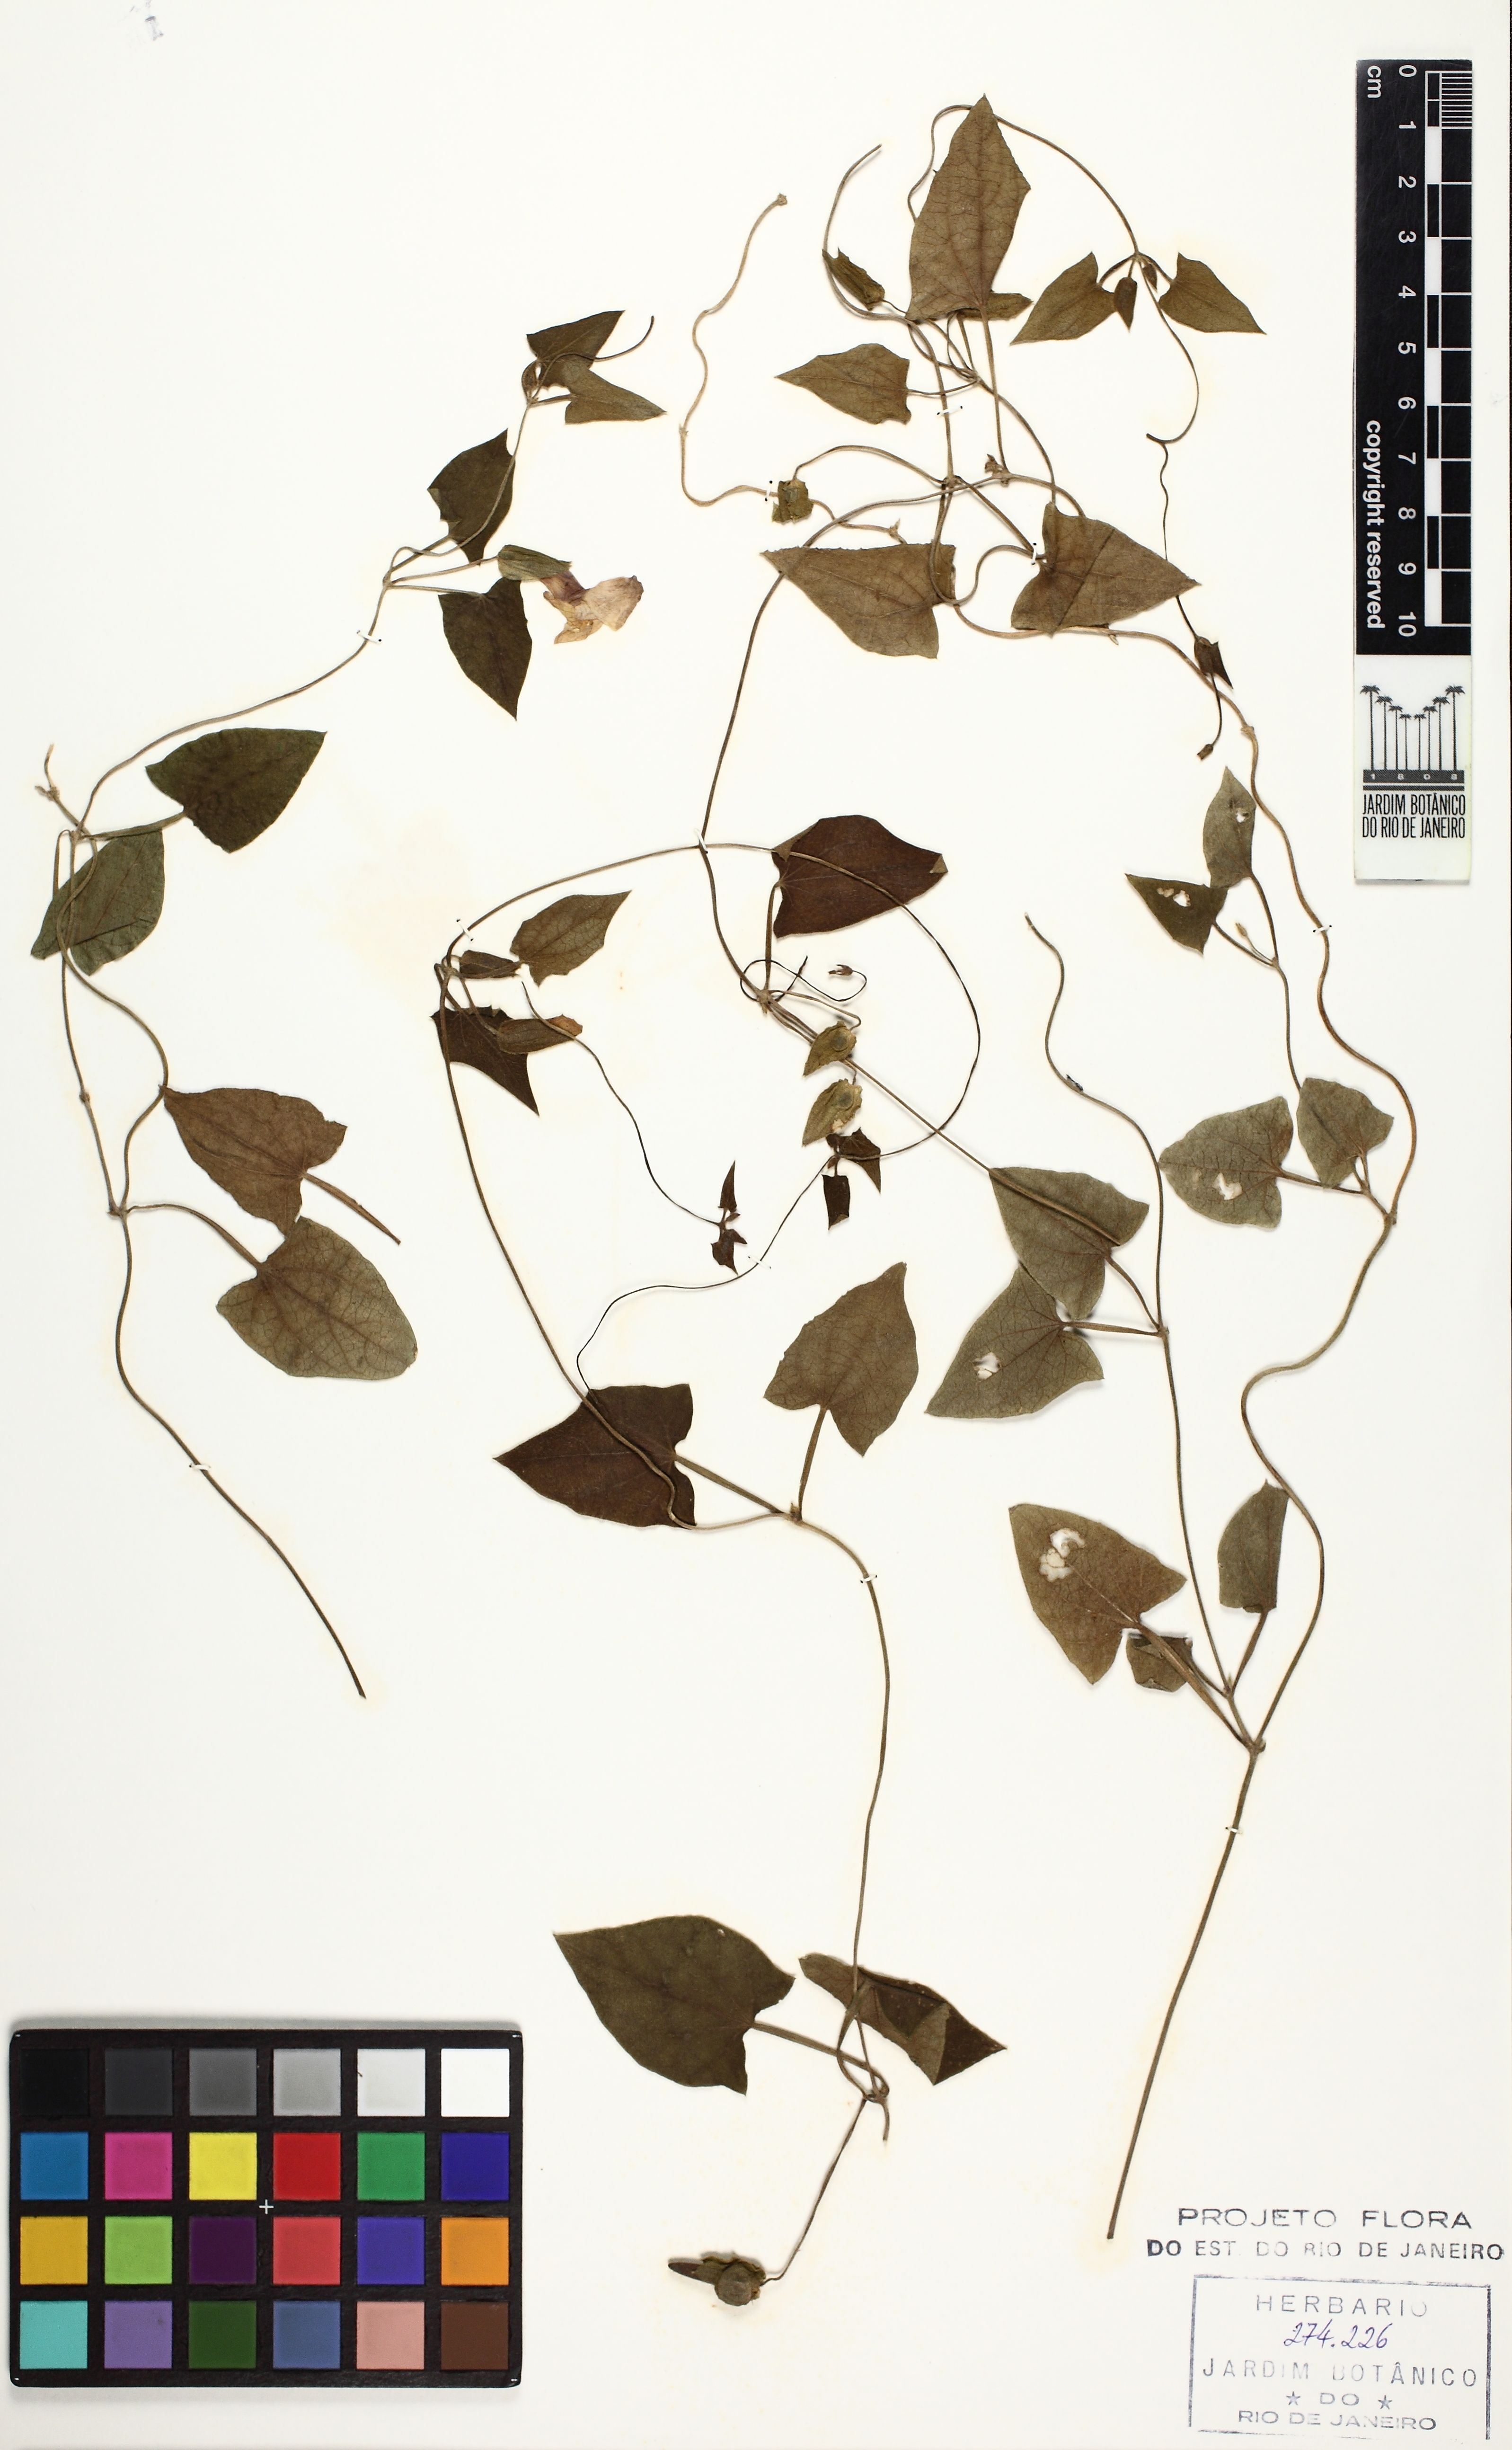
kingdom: Plantae
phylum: Tracheophyta
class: Magnoliopsida
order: Lamiales
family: Acanthaceae
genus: Thunbergia
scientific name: Thunbergia alata
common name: Blackeyed susan vine
